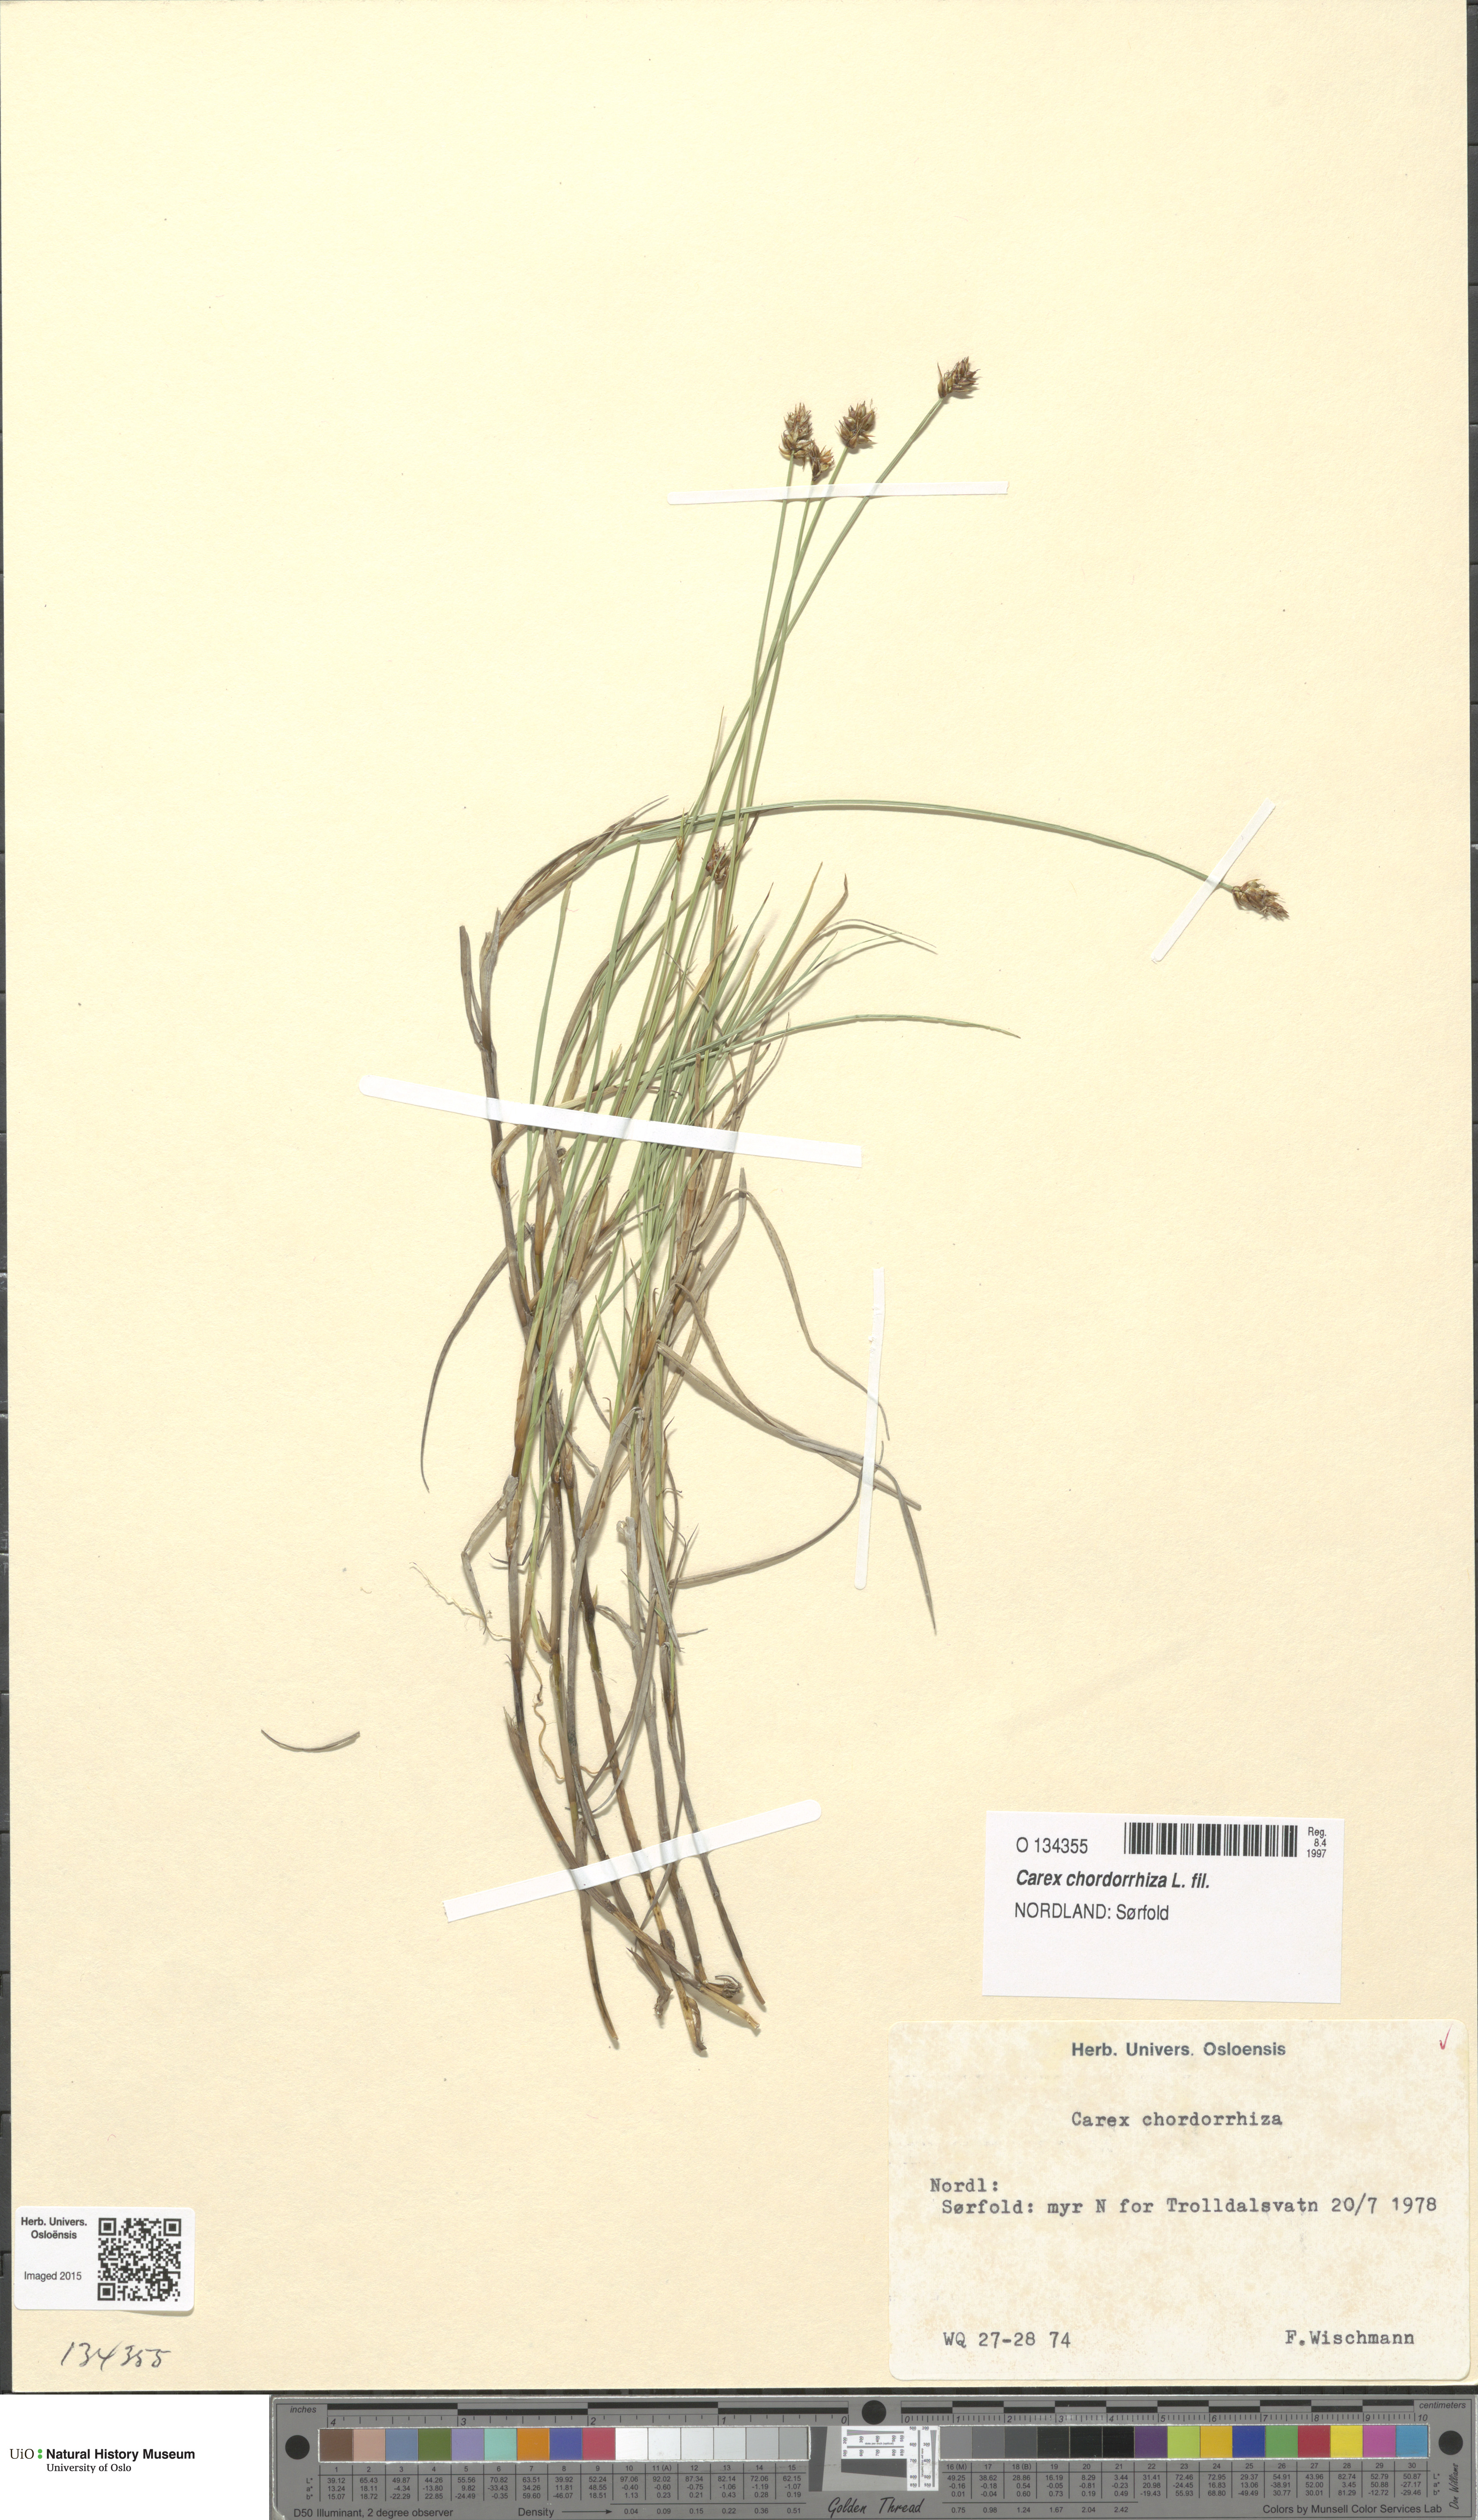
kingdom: Plantae
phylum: Tracheophyta
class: Liliopsida
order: Poales
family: Cyperaceae
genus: Carex
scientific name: Carex chordorrhiza
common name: String sedge
